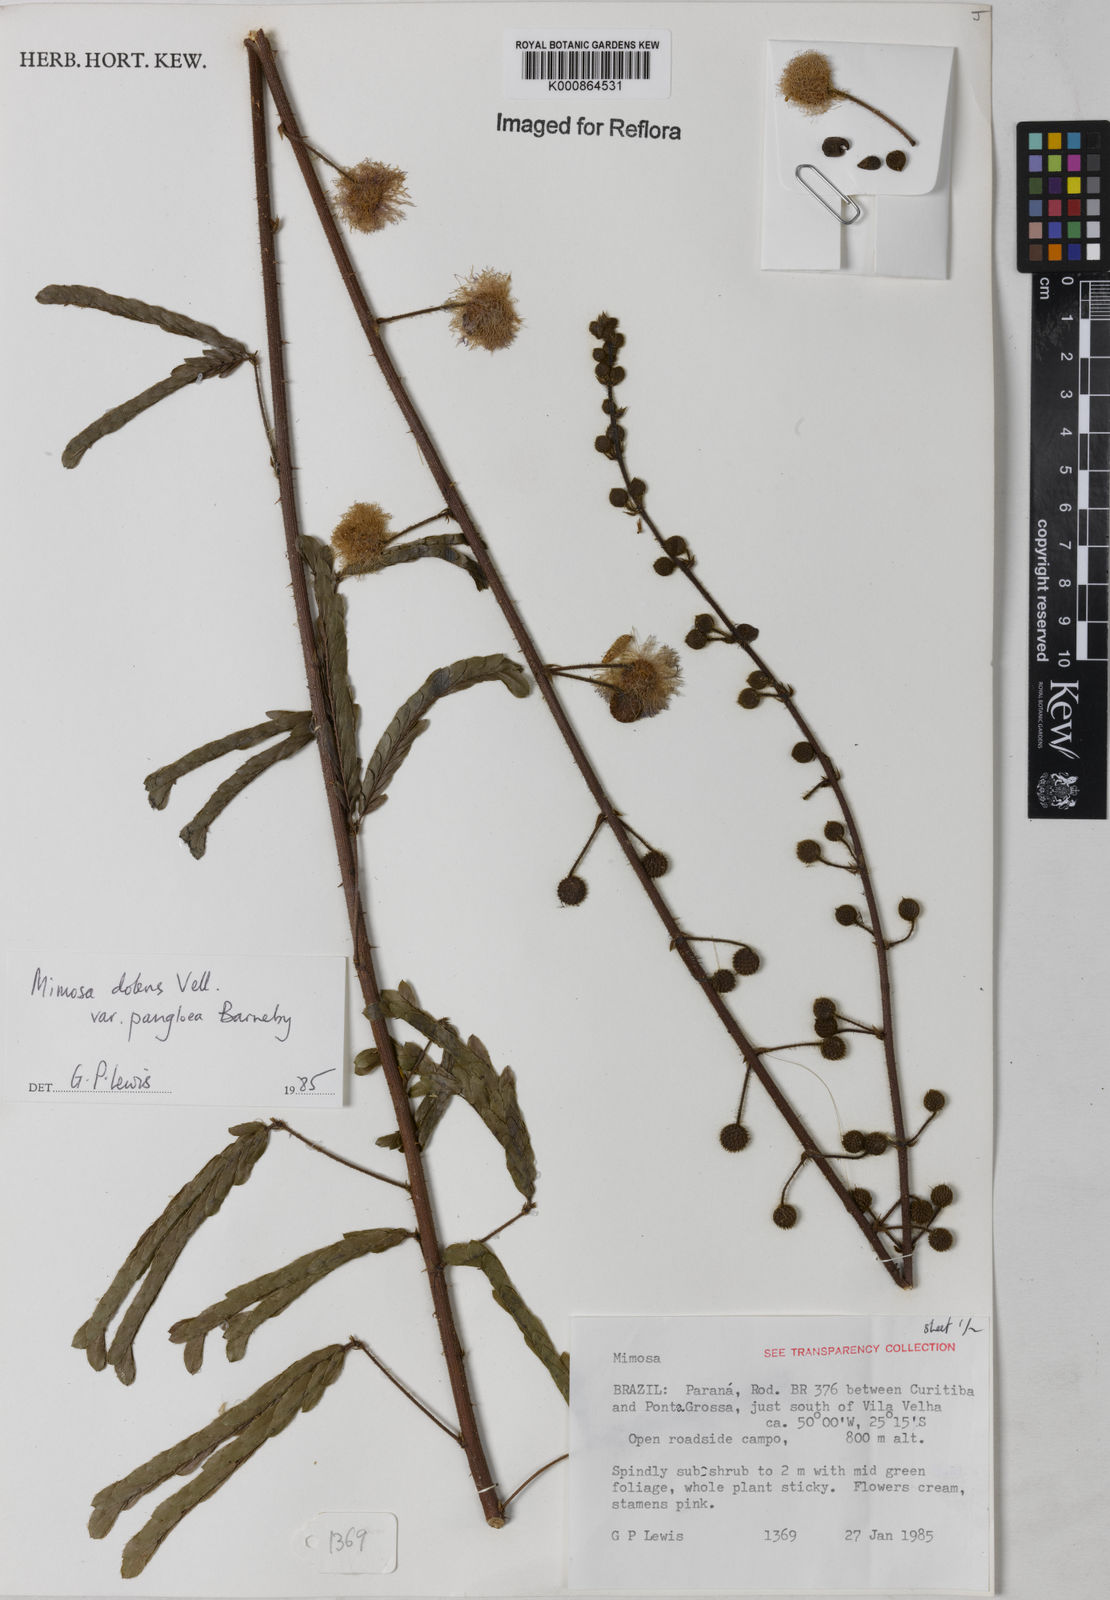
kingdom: Plantae
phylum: Tracheophyta
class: Magnoliopsida
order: Fabales
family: Fabaceae
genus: Mimosa
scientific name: Mimosa dolens
